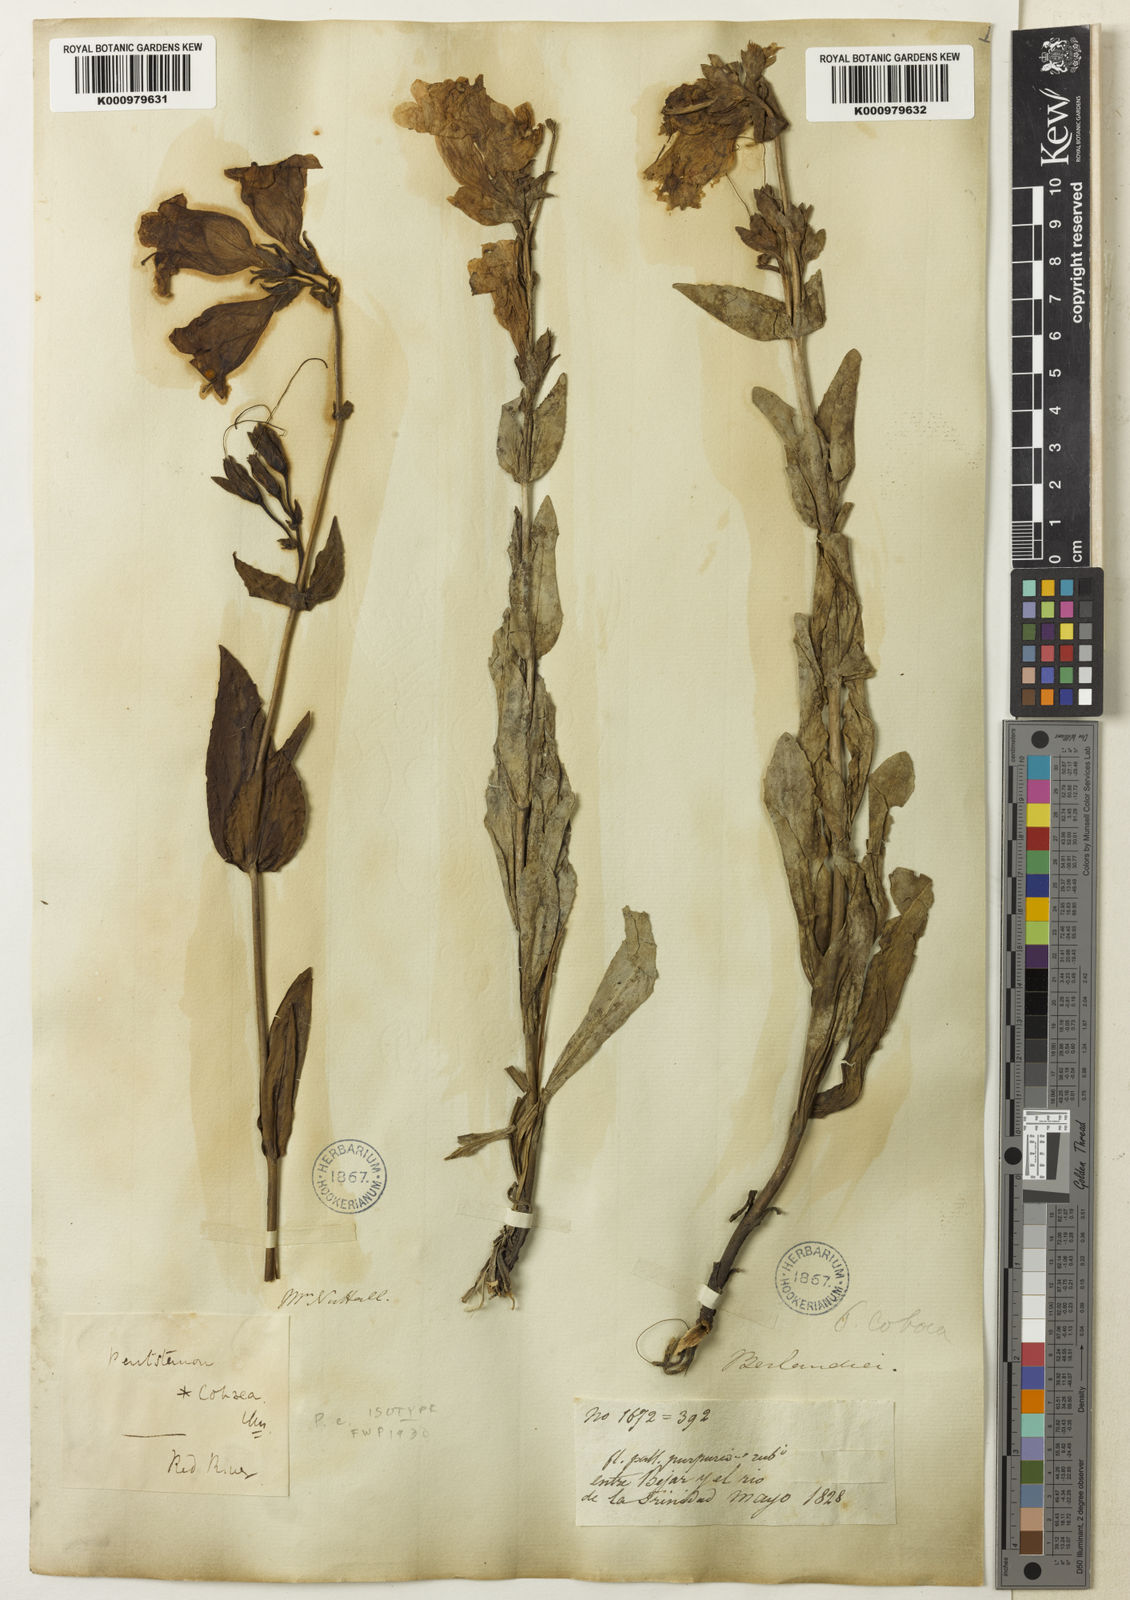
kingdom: Plantae
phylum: Tracheophyta
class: Magnoliopsida
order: Lamiales
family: Plantaginaceae
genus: Penstemon
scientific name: Penstemon cobaea
